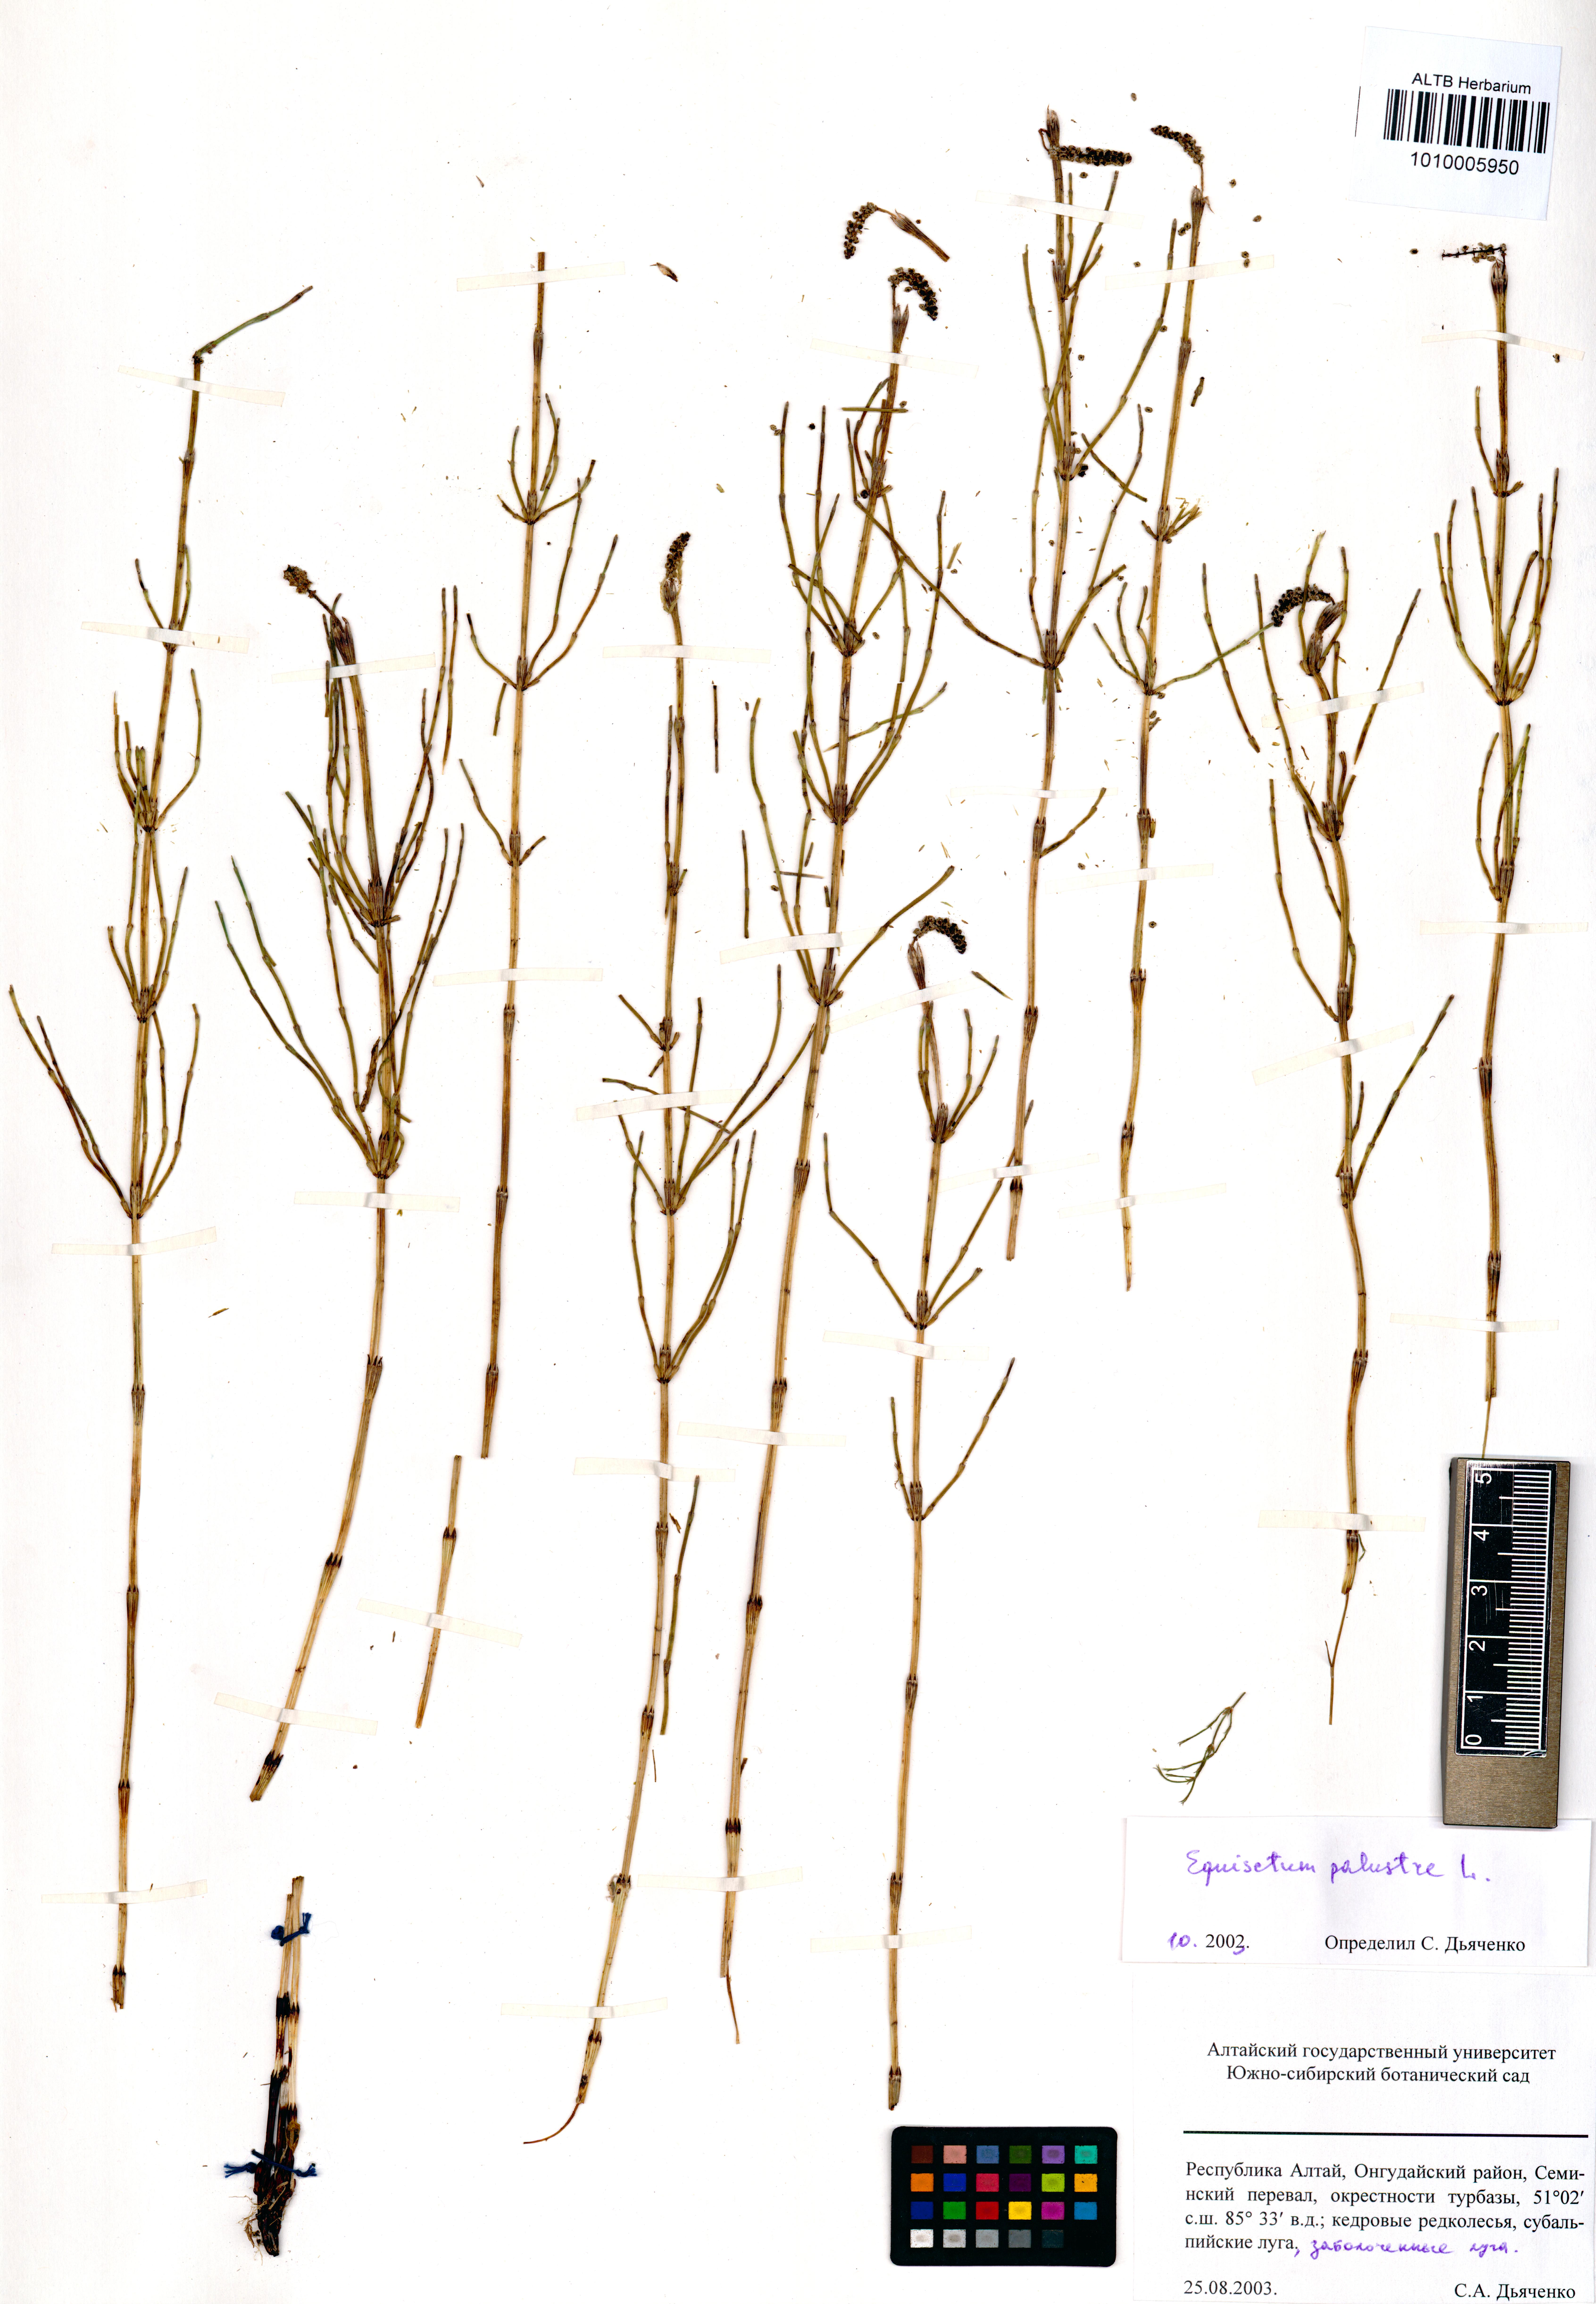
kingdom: Plantae
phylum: Tracheophyta
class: Polypodiopsida
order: Equisetales
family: Equisetaceae
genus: Equisetum
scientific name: Equisetum palustre
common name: Marsh horsetail
